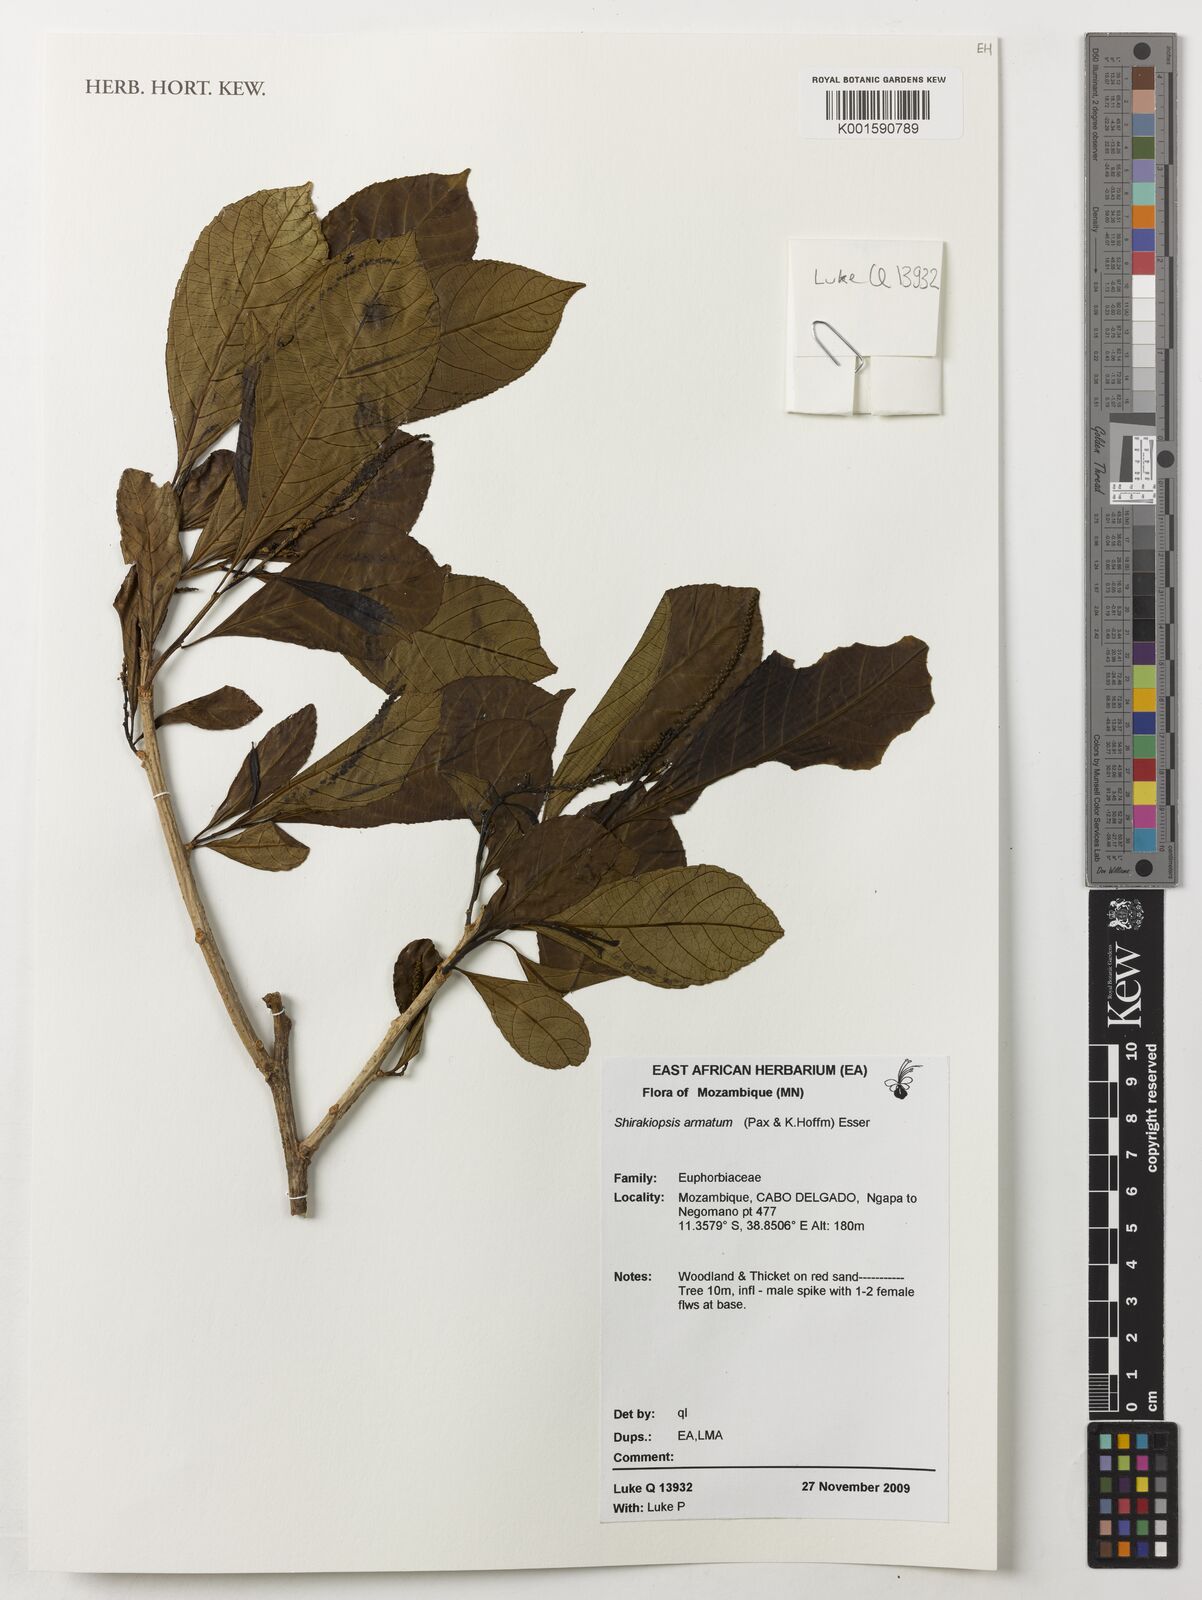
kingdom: Plantae
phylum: Tracheophyta
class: Magnoliopsida
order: Malpighiales
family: Euphorbiaceae
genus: Shirakiopsis
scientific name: Shirakiopsis
